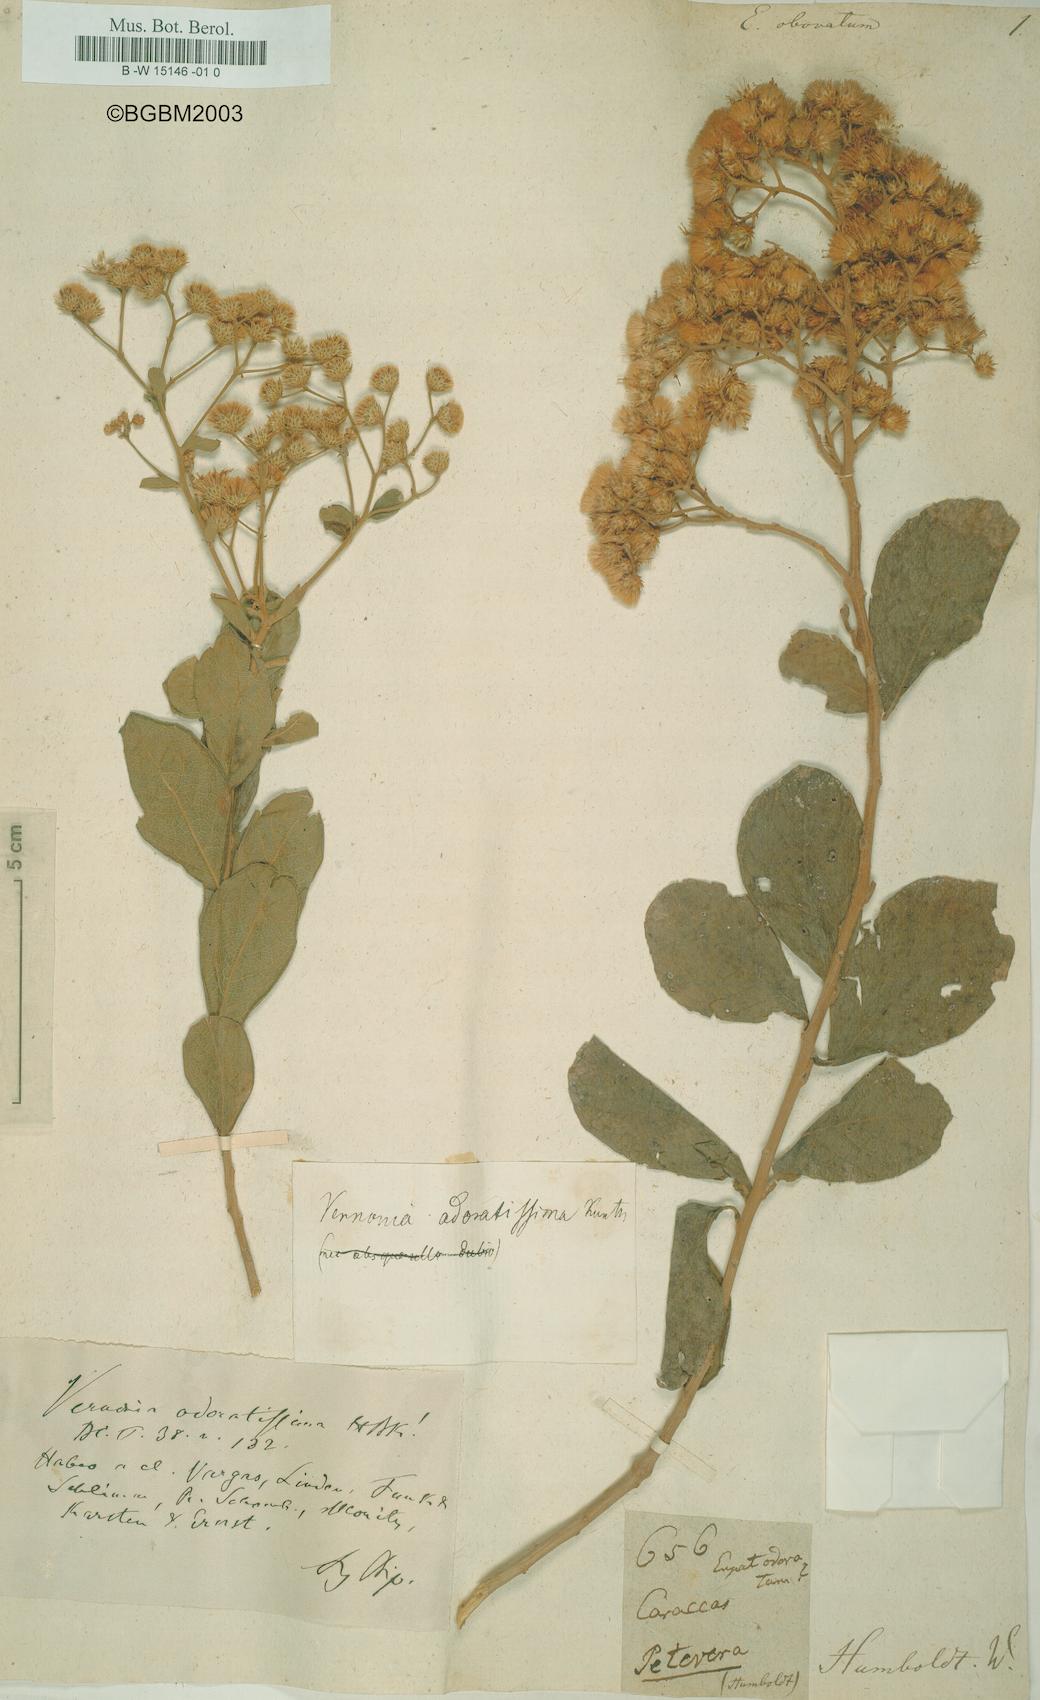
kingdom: Plantae
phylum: Tracheophyta
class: Magnoliopsida
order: Asterales
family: Asteraceae
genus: Vernonanthura
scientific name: Vernonanthura brasiliana
